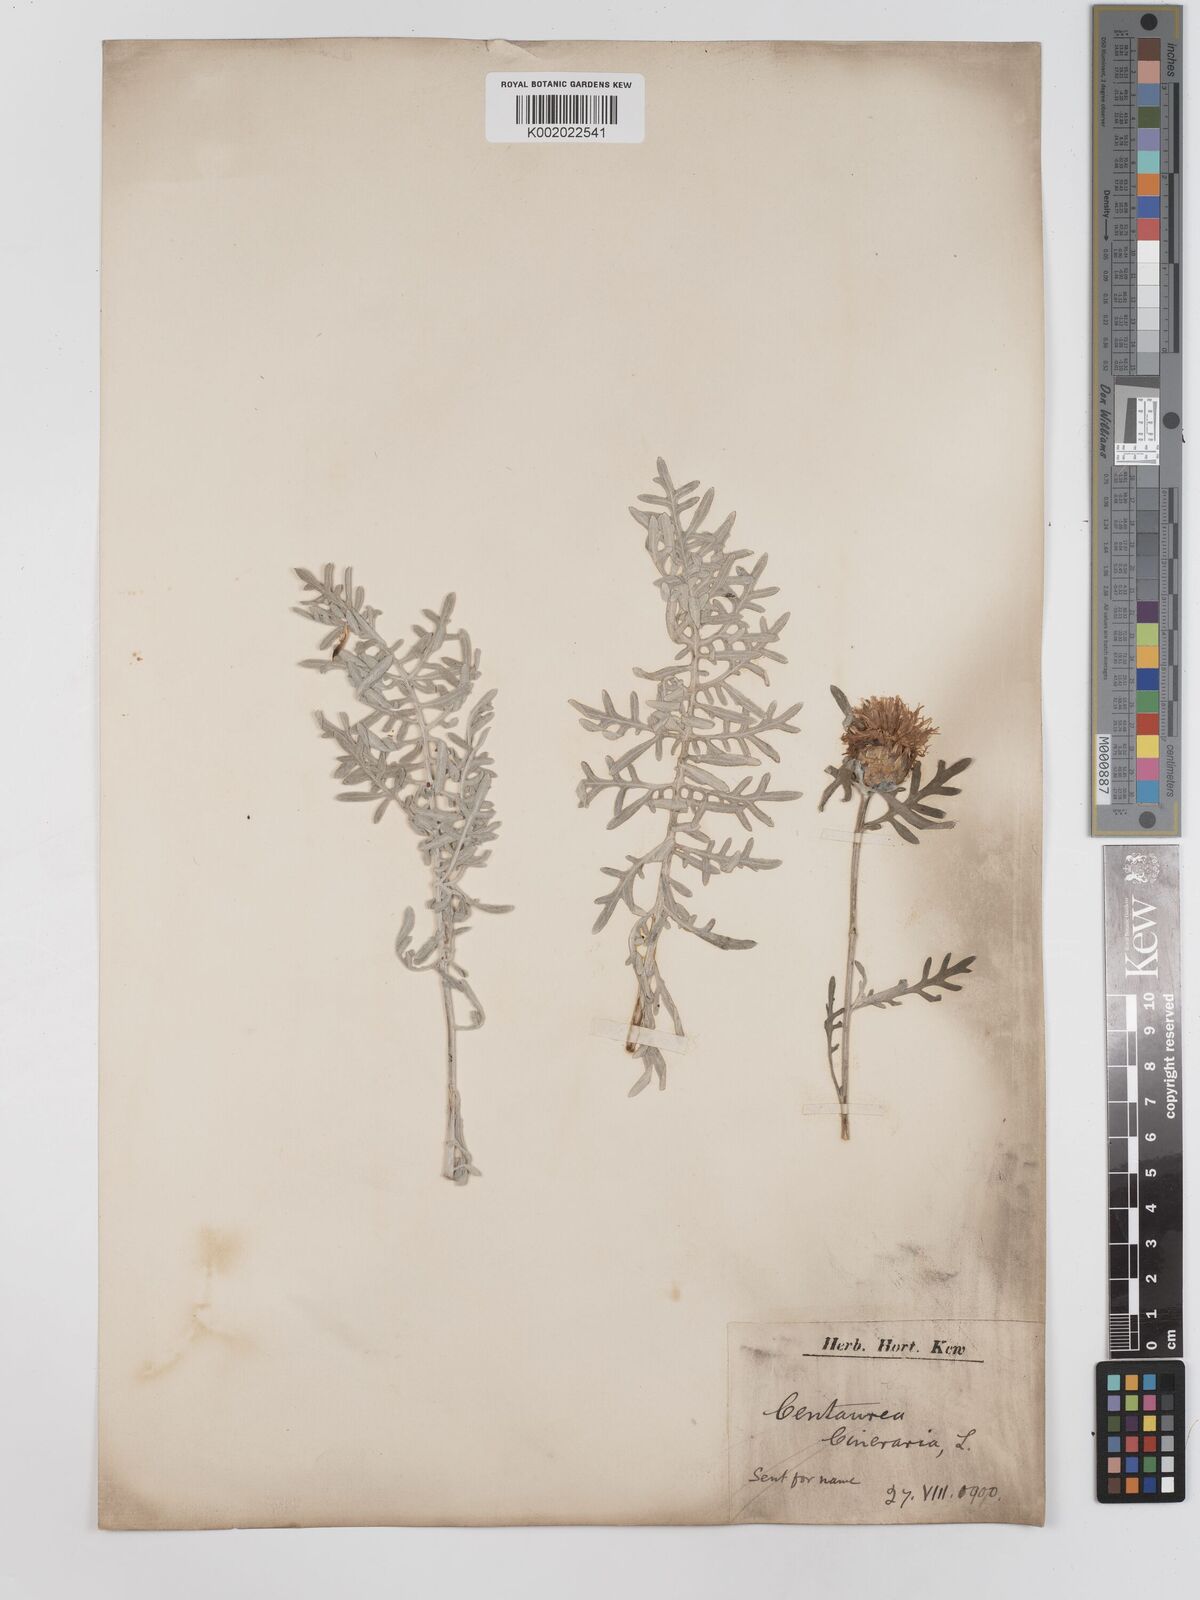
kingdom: Plantae
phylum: Tracheophyta
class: Magnoliopsida
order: Asterales
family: Asteraceae
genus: Centaurea
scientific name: Centaurea
